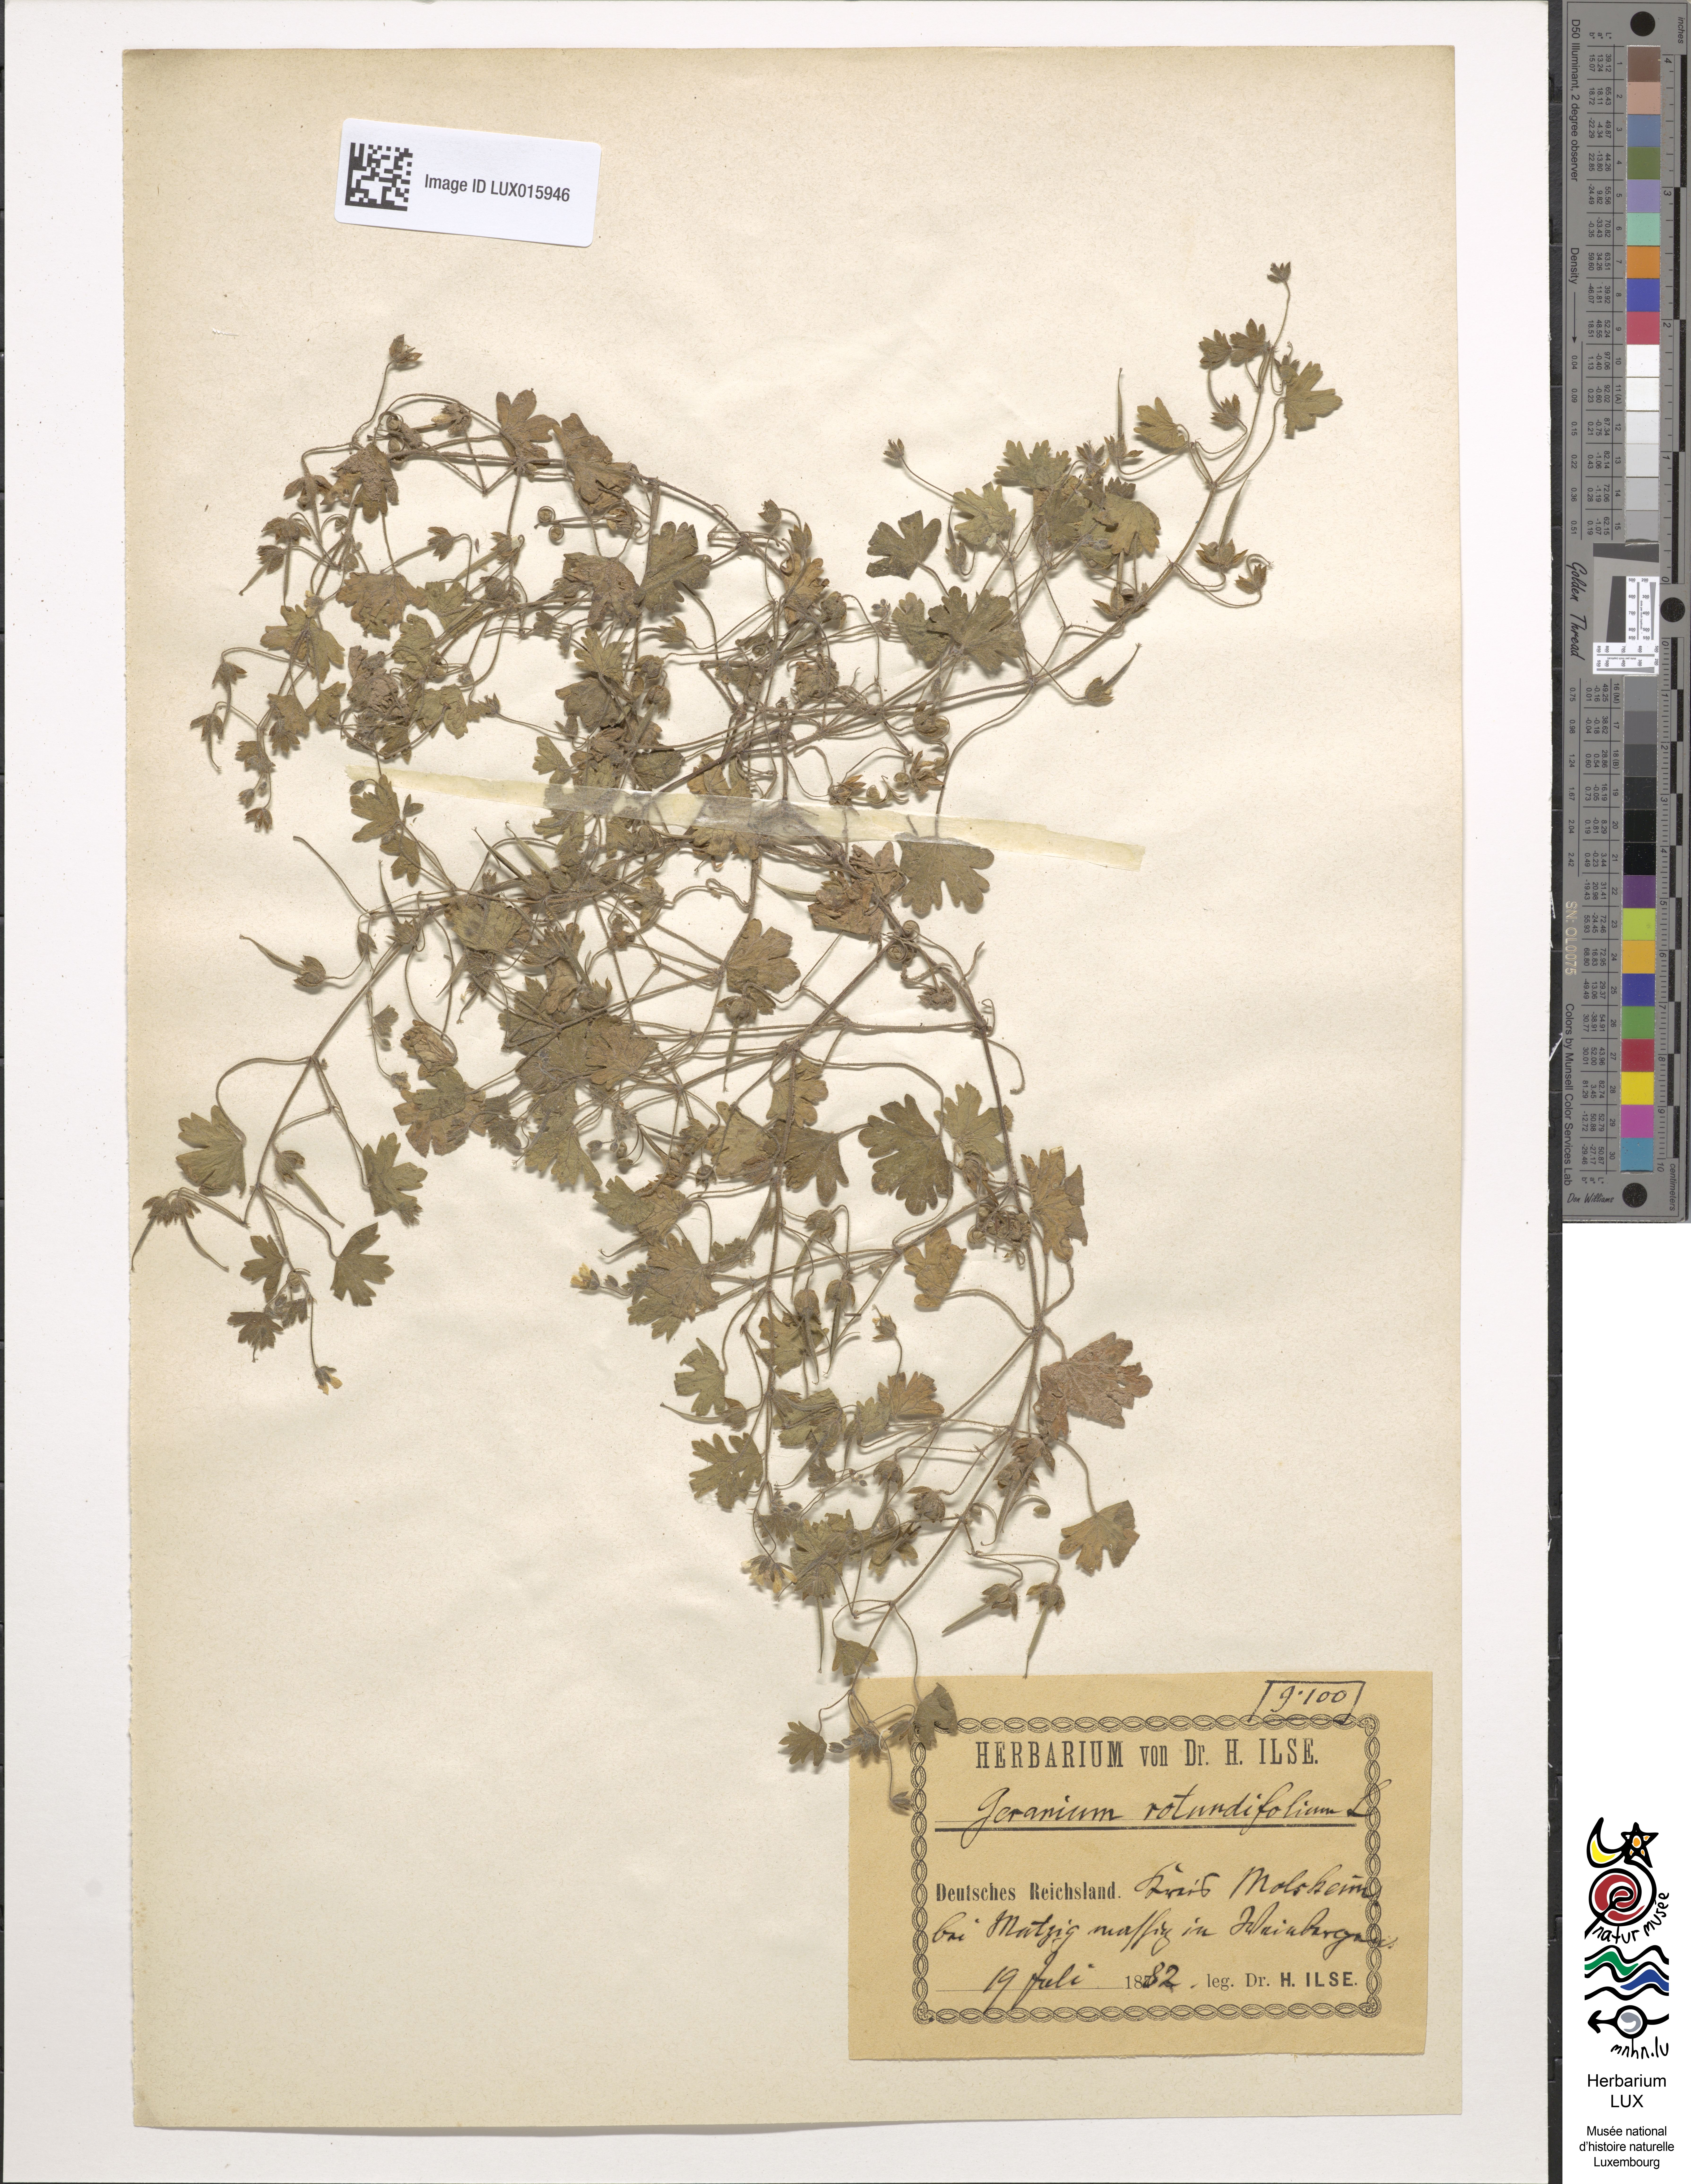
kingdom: Plantae
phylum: Tracheophyta
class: Magnoliopsida
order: Geraniales
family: Geraniaceae
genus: Geranium
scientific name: Geranium rotundifolium
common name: Round-leaved crane's-bill
